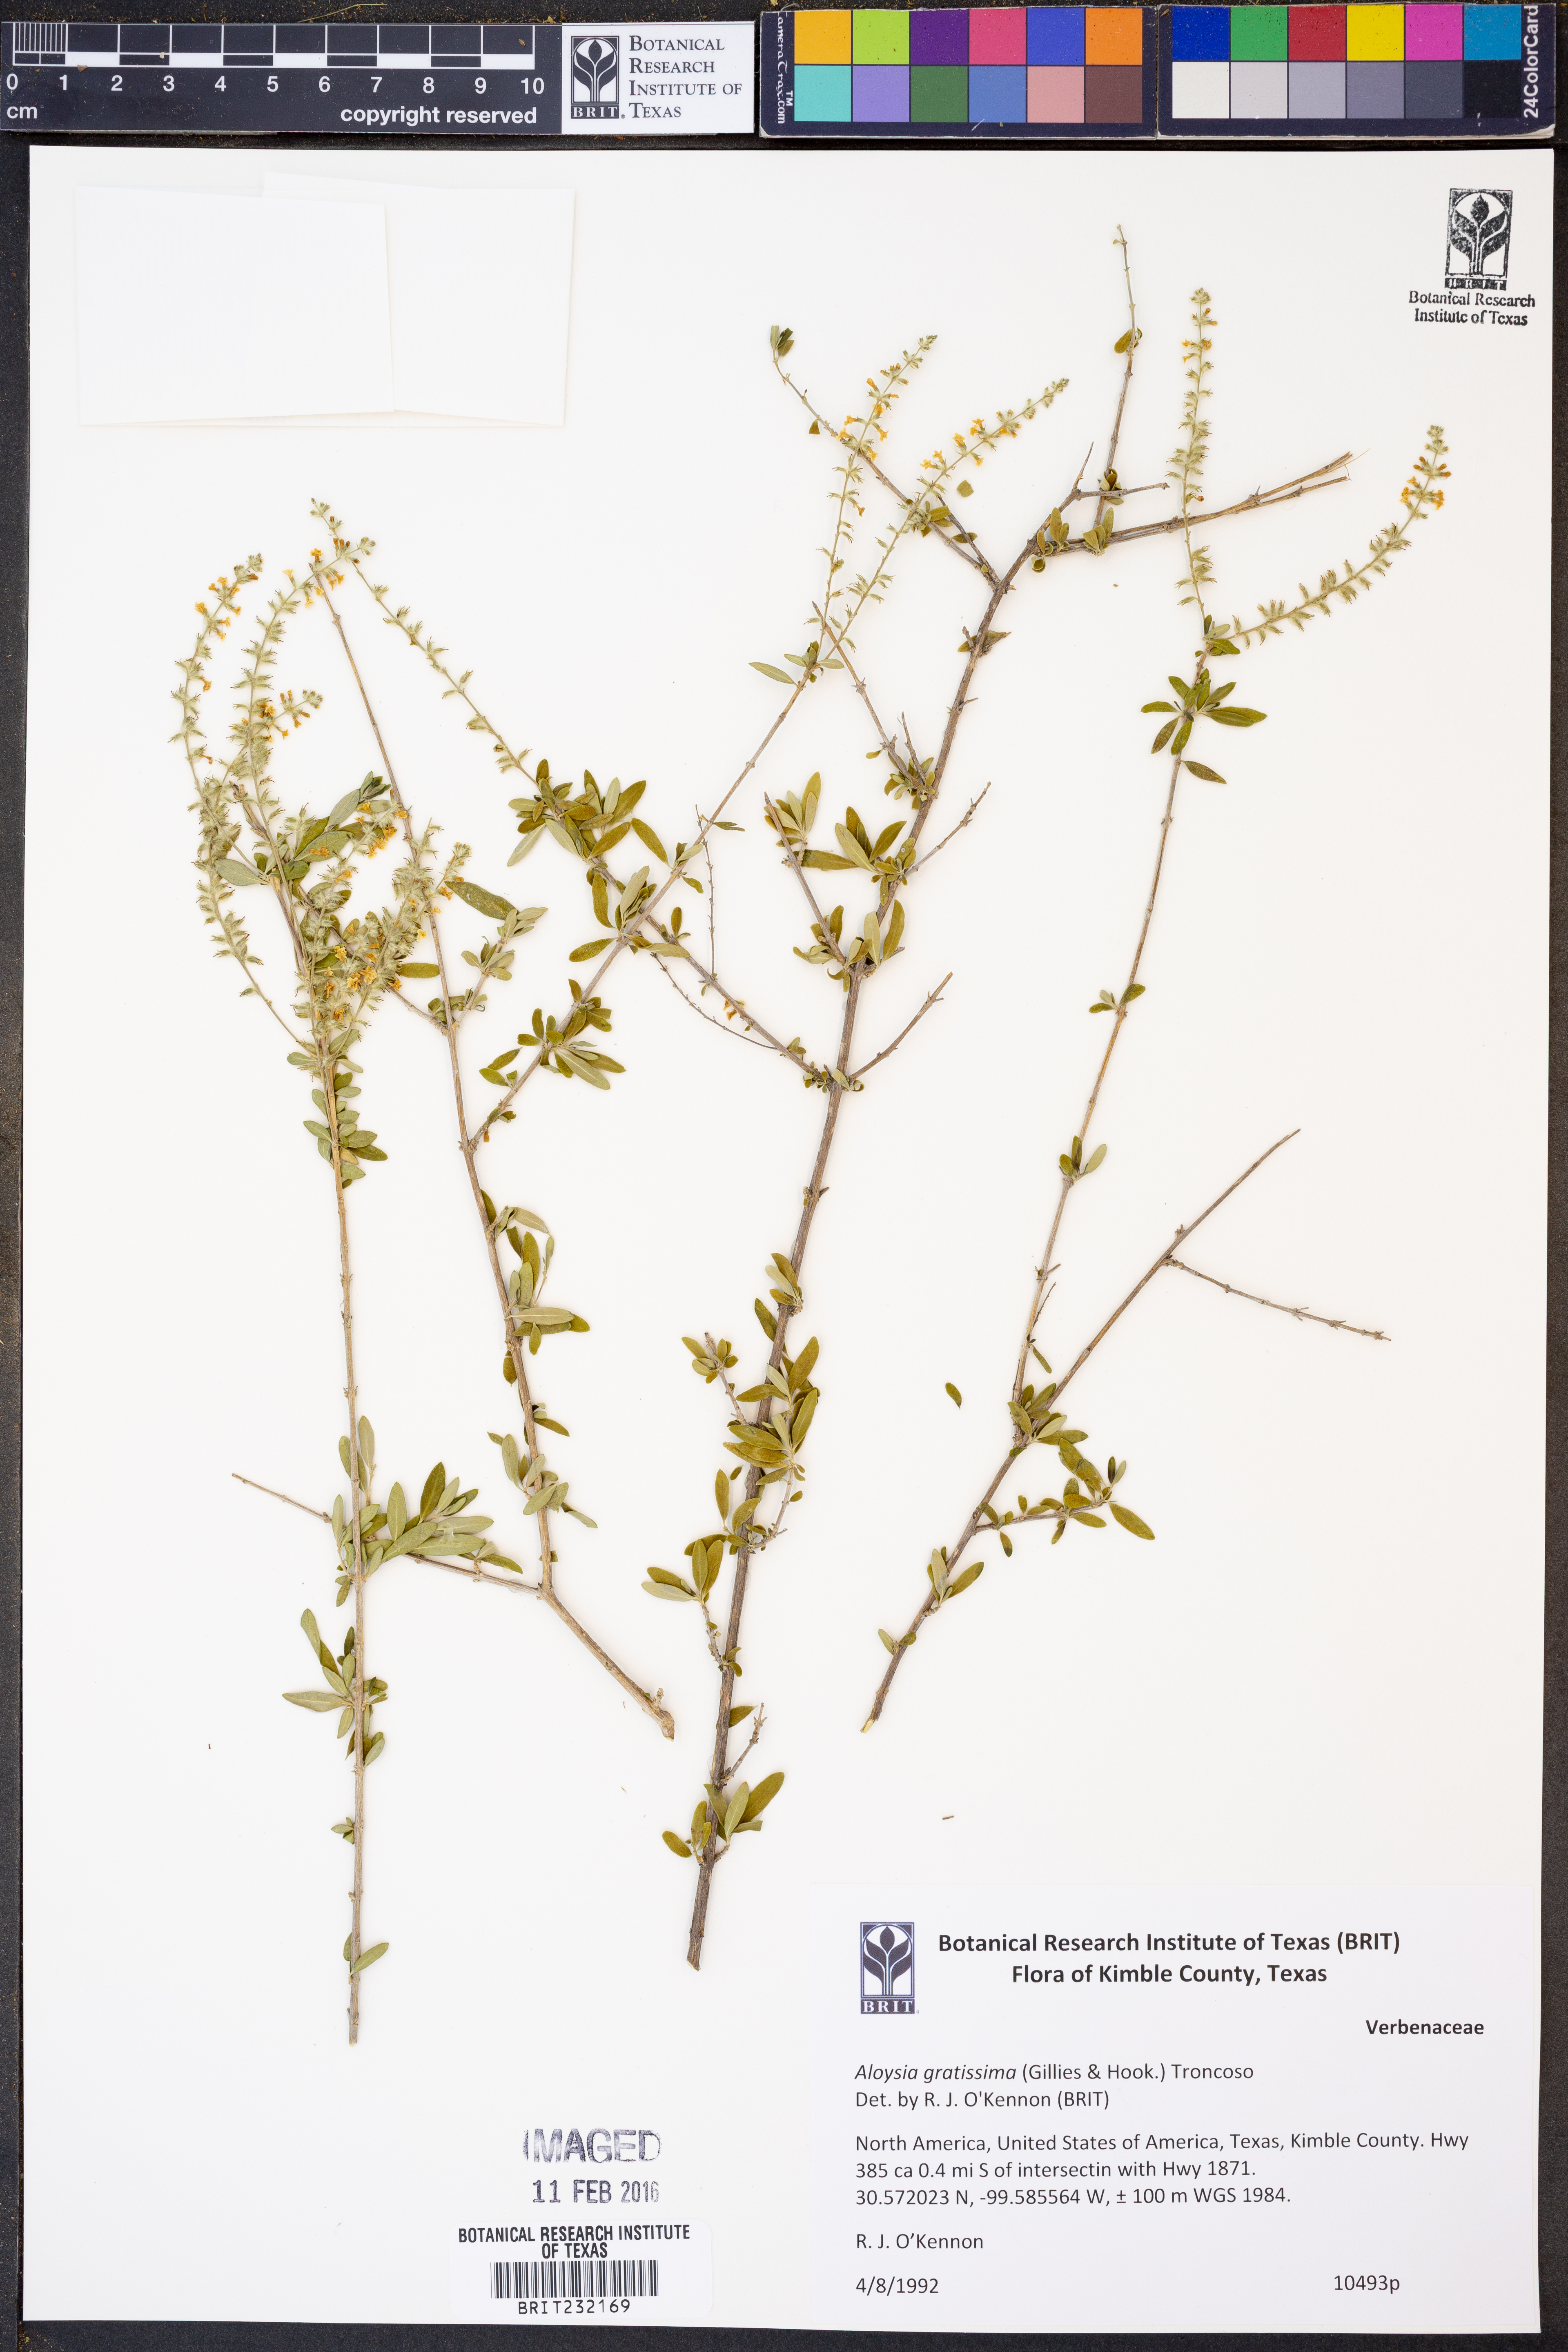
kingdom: Plantae
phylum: Tracheophyta
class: Magnoliopsida
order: Lamiales
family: Verbenaceae
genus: Aloysia
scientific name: Aloysia gratissima
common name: Common bee-brush
